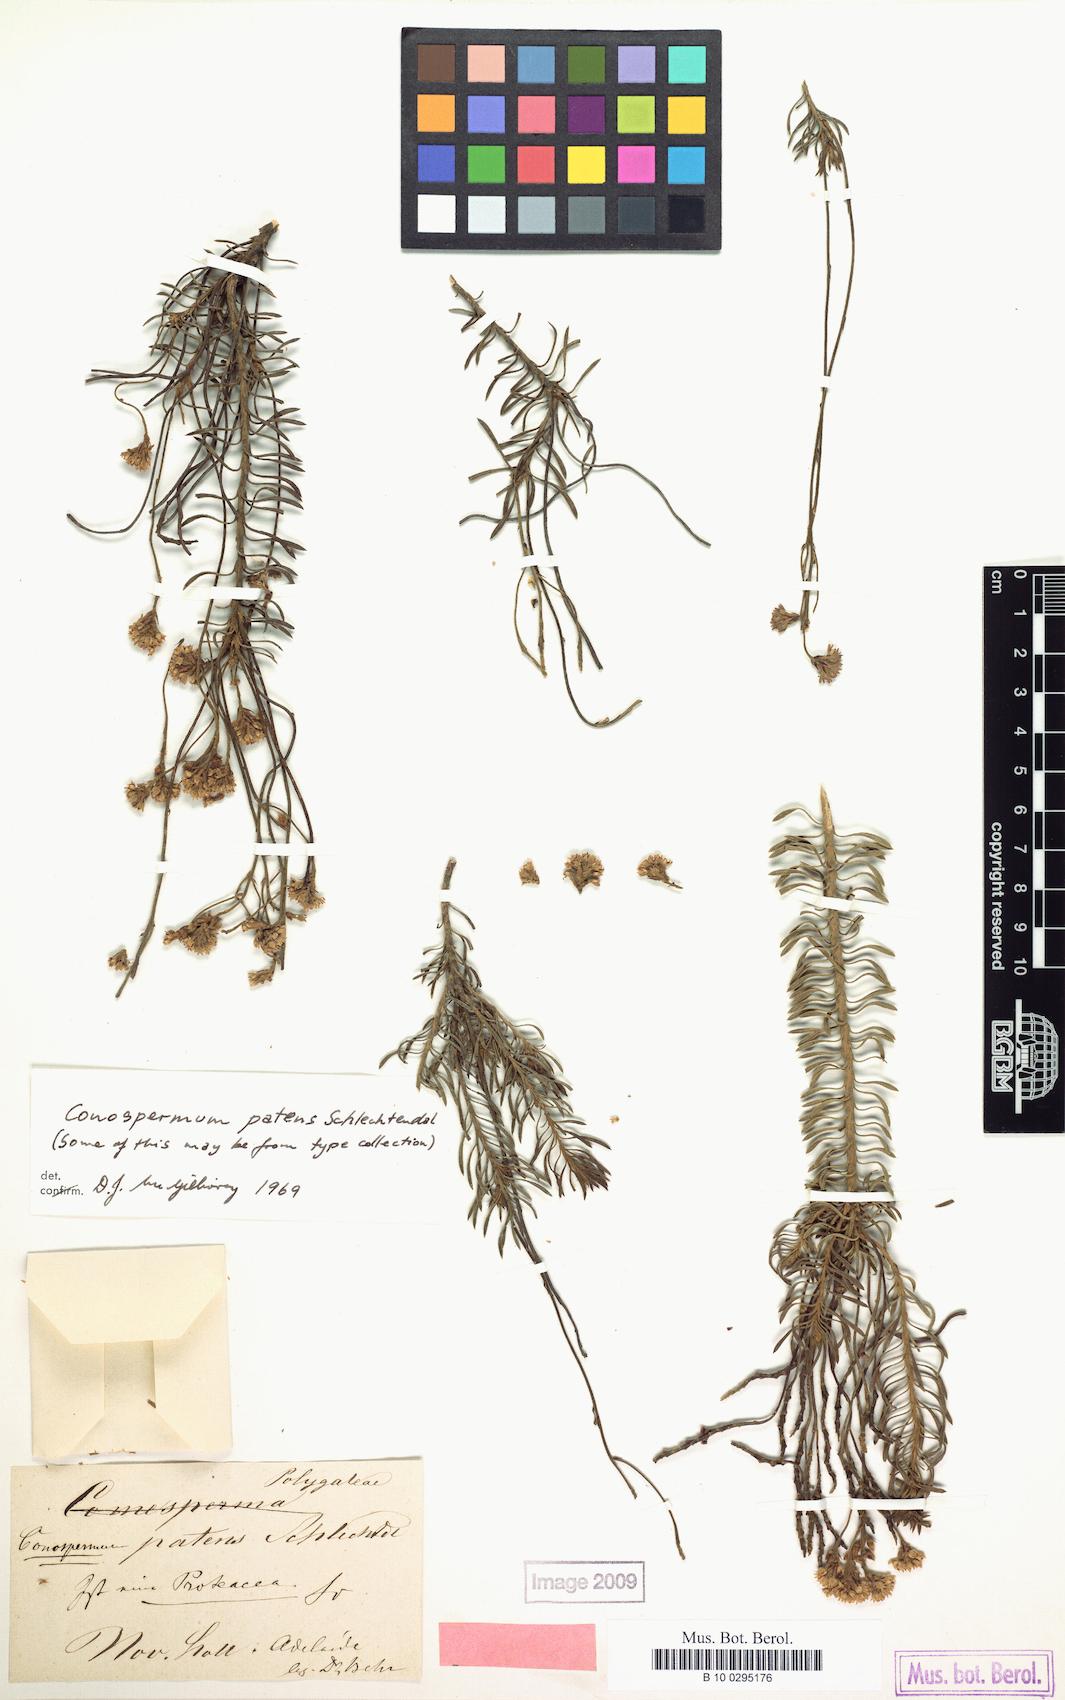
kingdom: Plantae
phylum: Tracheophyta
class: Magnoliopsida
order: Proteales
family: Proteaceae
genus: Conospermum
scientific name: Conospermum patens
